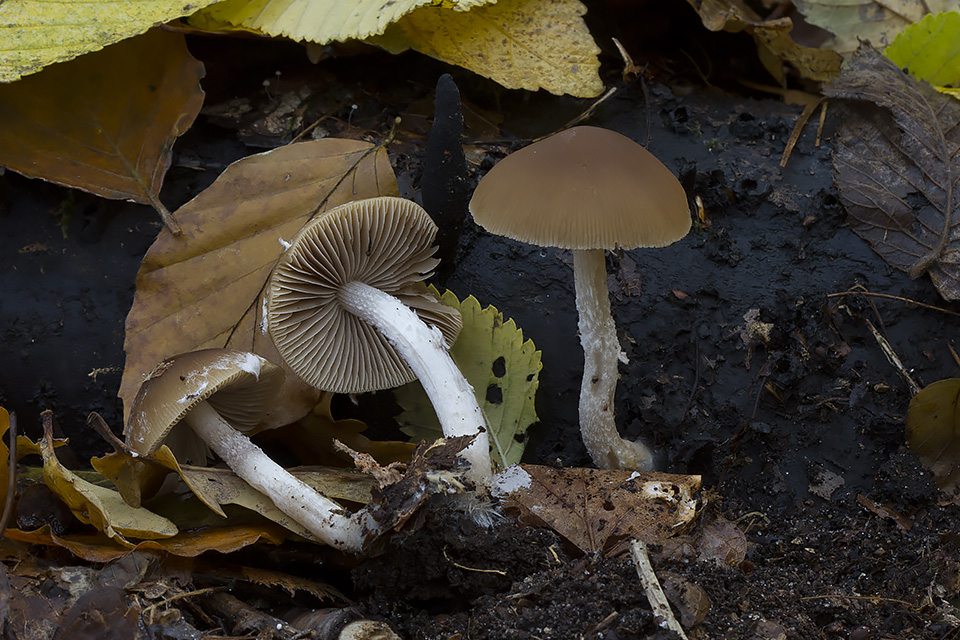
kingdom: Fungi
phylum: Basidiomycota
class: Agaricomycetes
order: Agaricales
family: Psathyrellaceae
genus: Psathyrella
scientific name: Psathyrella rostellata
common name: næbbet mørkhat
